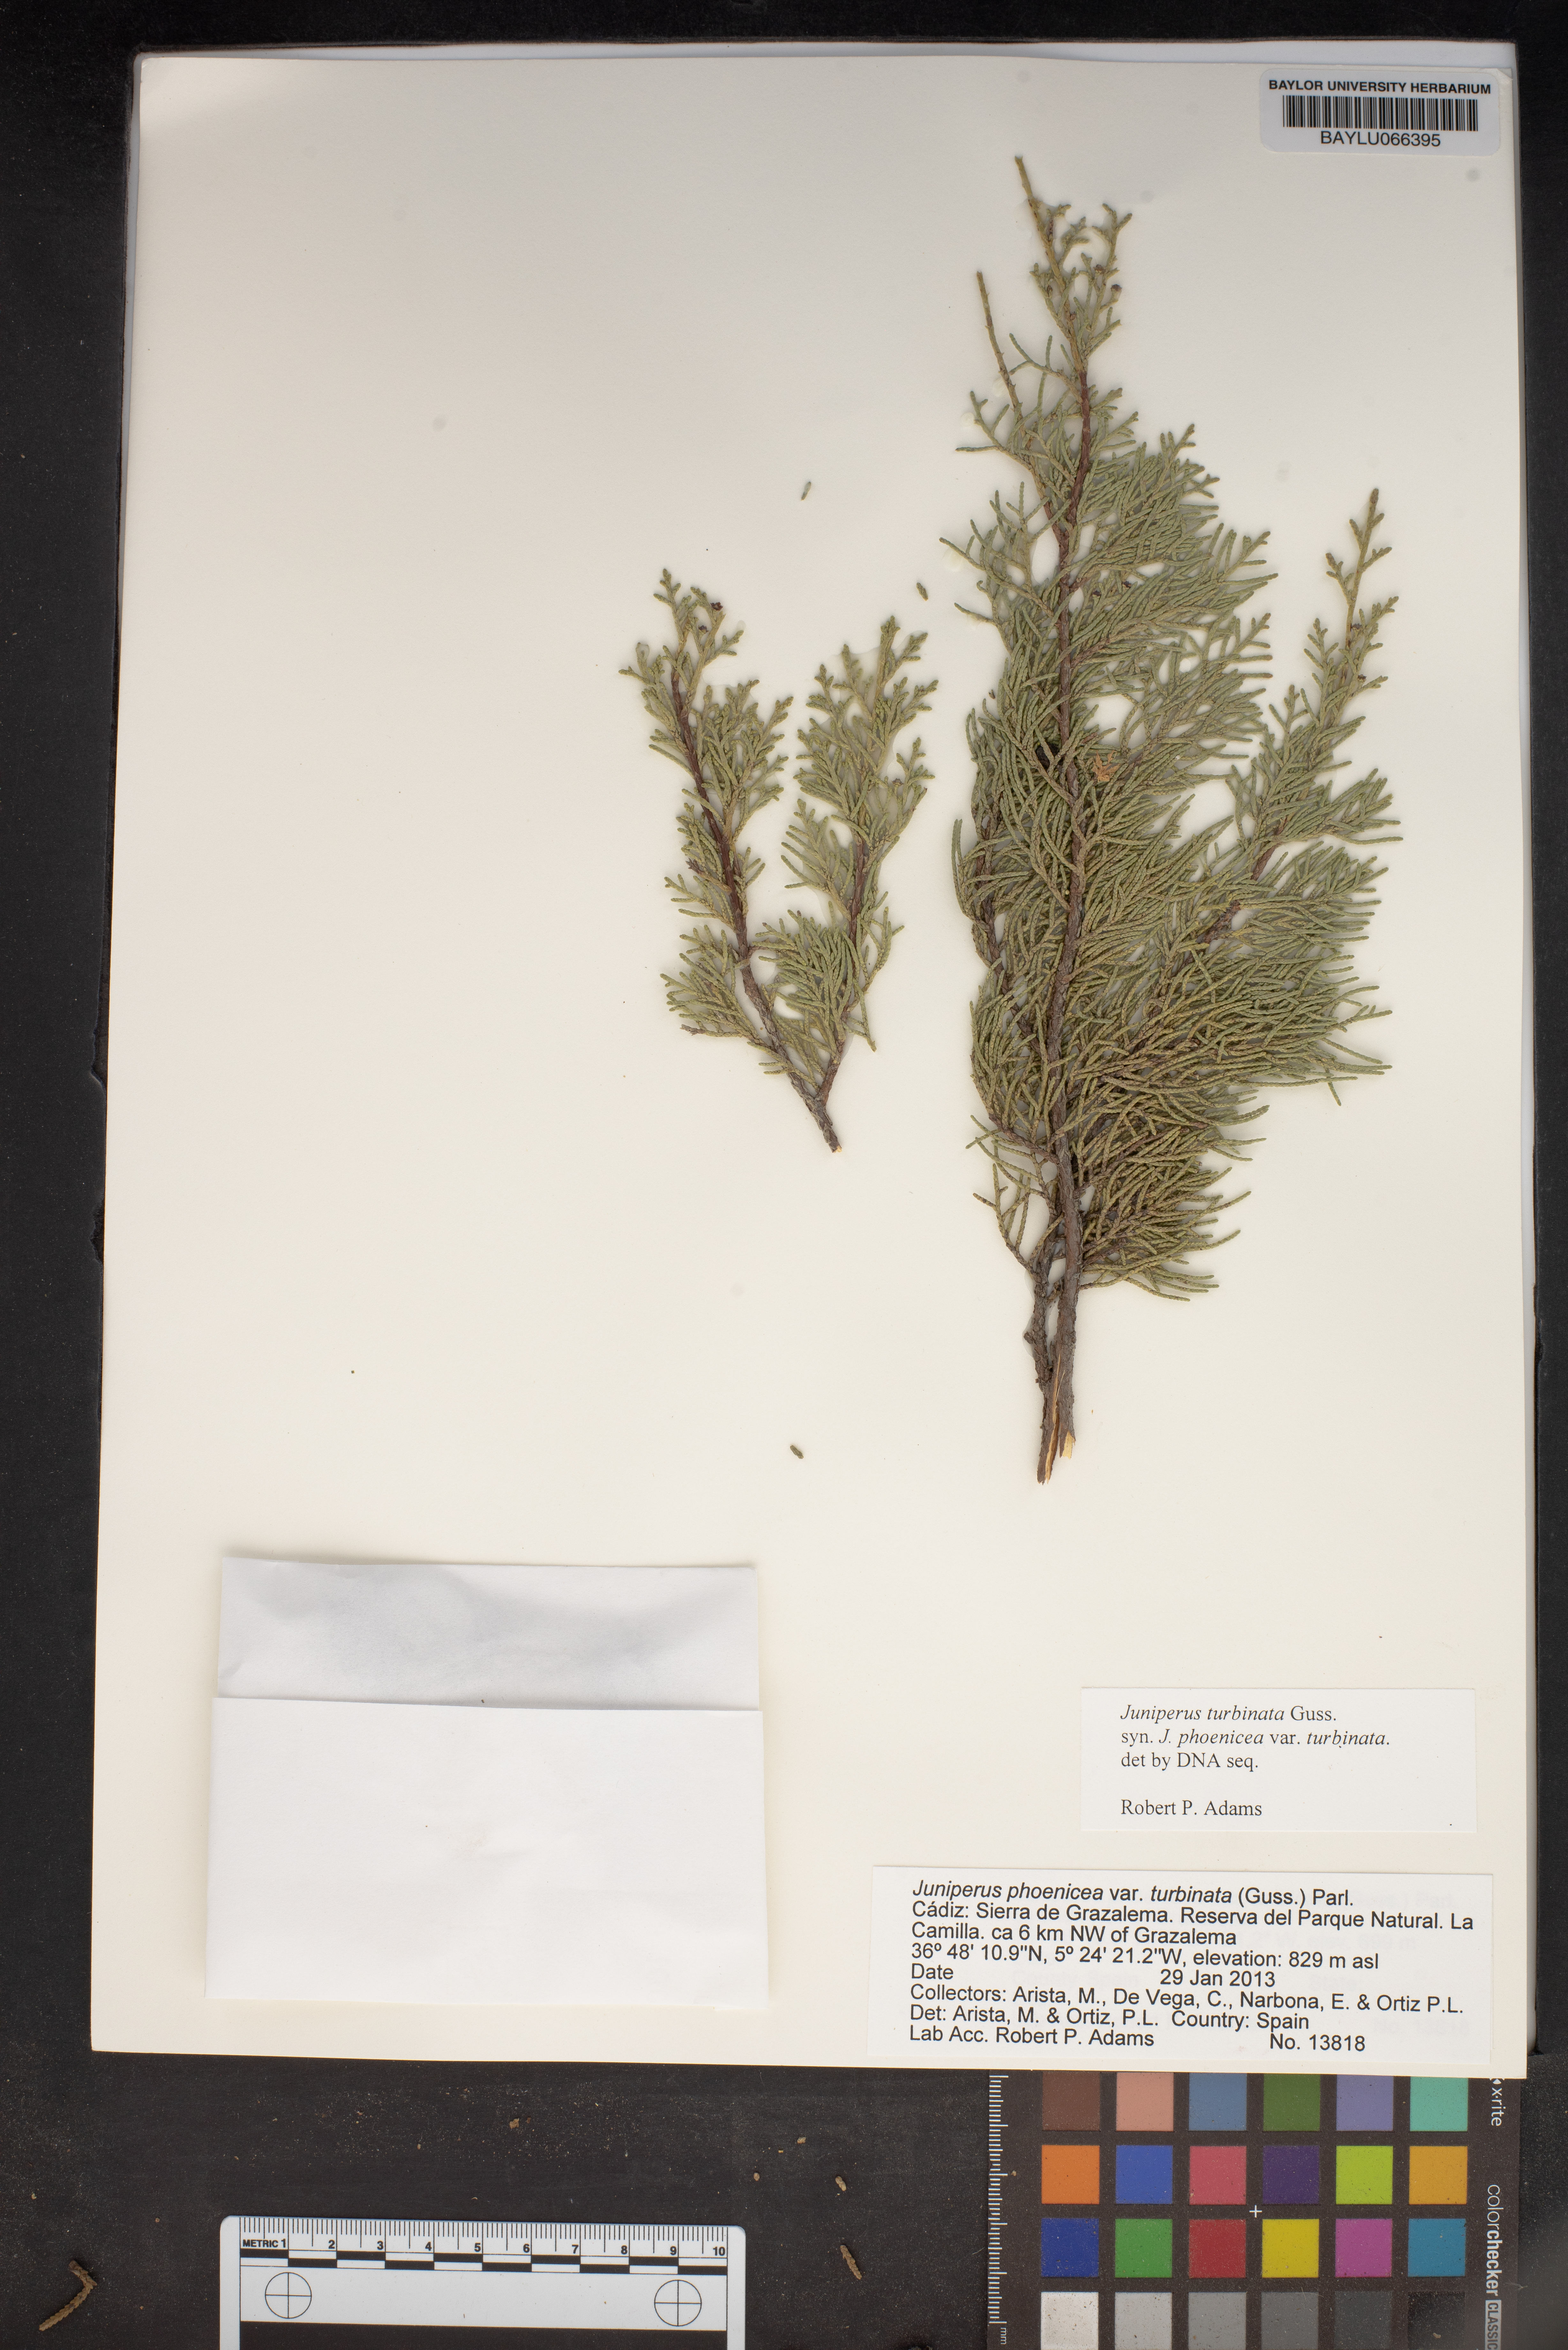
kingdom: Plantae
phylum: Tracheophyta
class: Pinopsida
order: Pinales
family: Cupressaceae
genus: Juniperus
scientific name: Juniperus phoenicea
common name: Phoenician juniper
